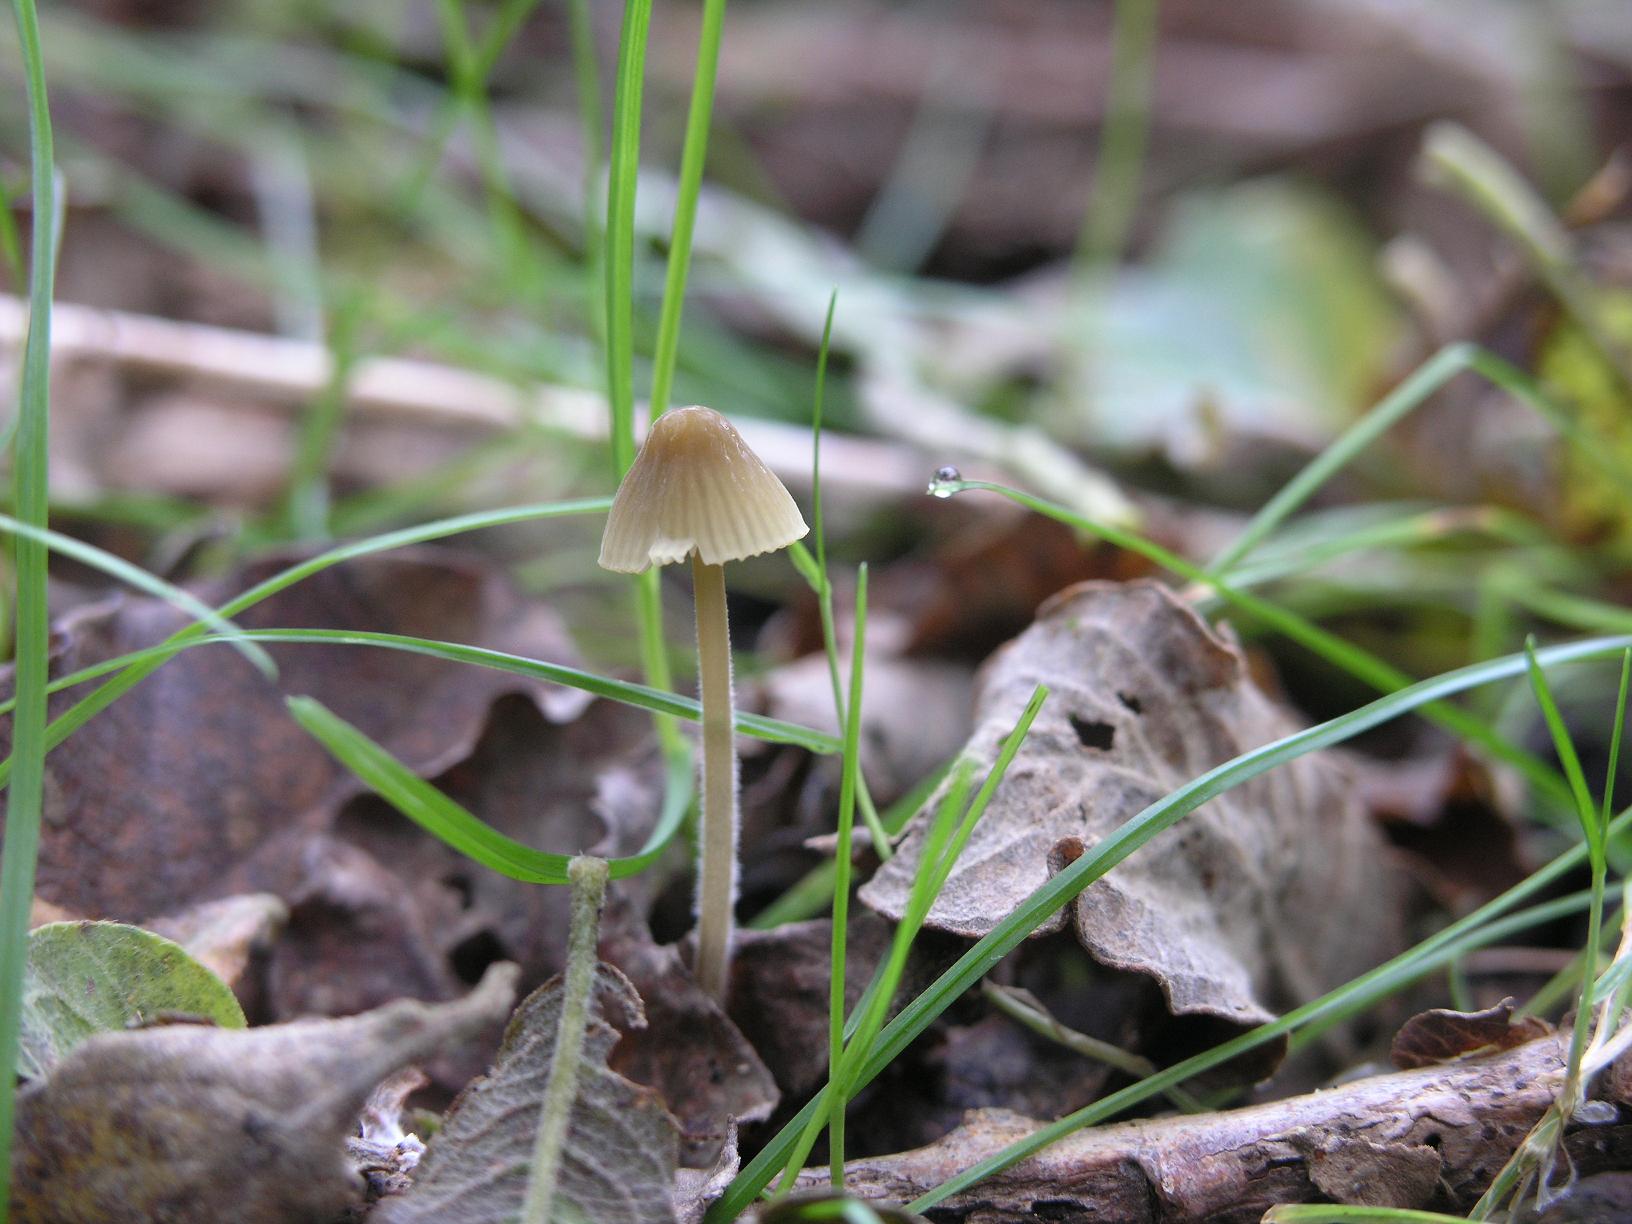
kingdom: Fungi
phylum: Basidiomycota
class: Agaricomycetes
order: Agaricales
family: Mycenaceae
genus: Mycena
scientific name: Mycena citrinomarginata
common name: gulægget huesvamp
